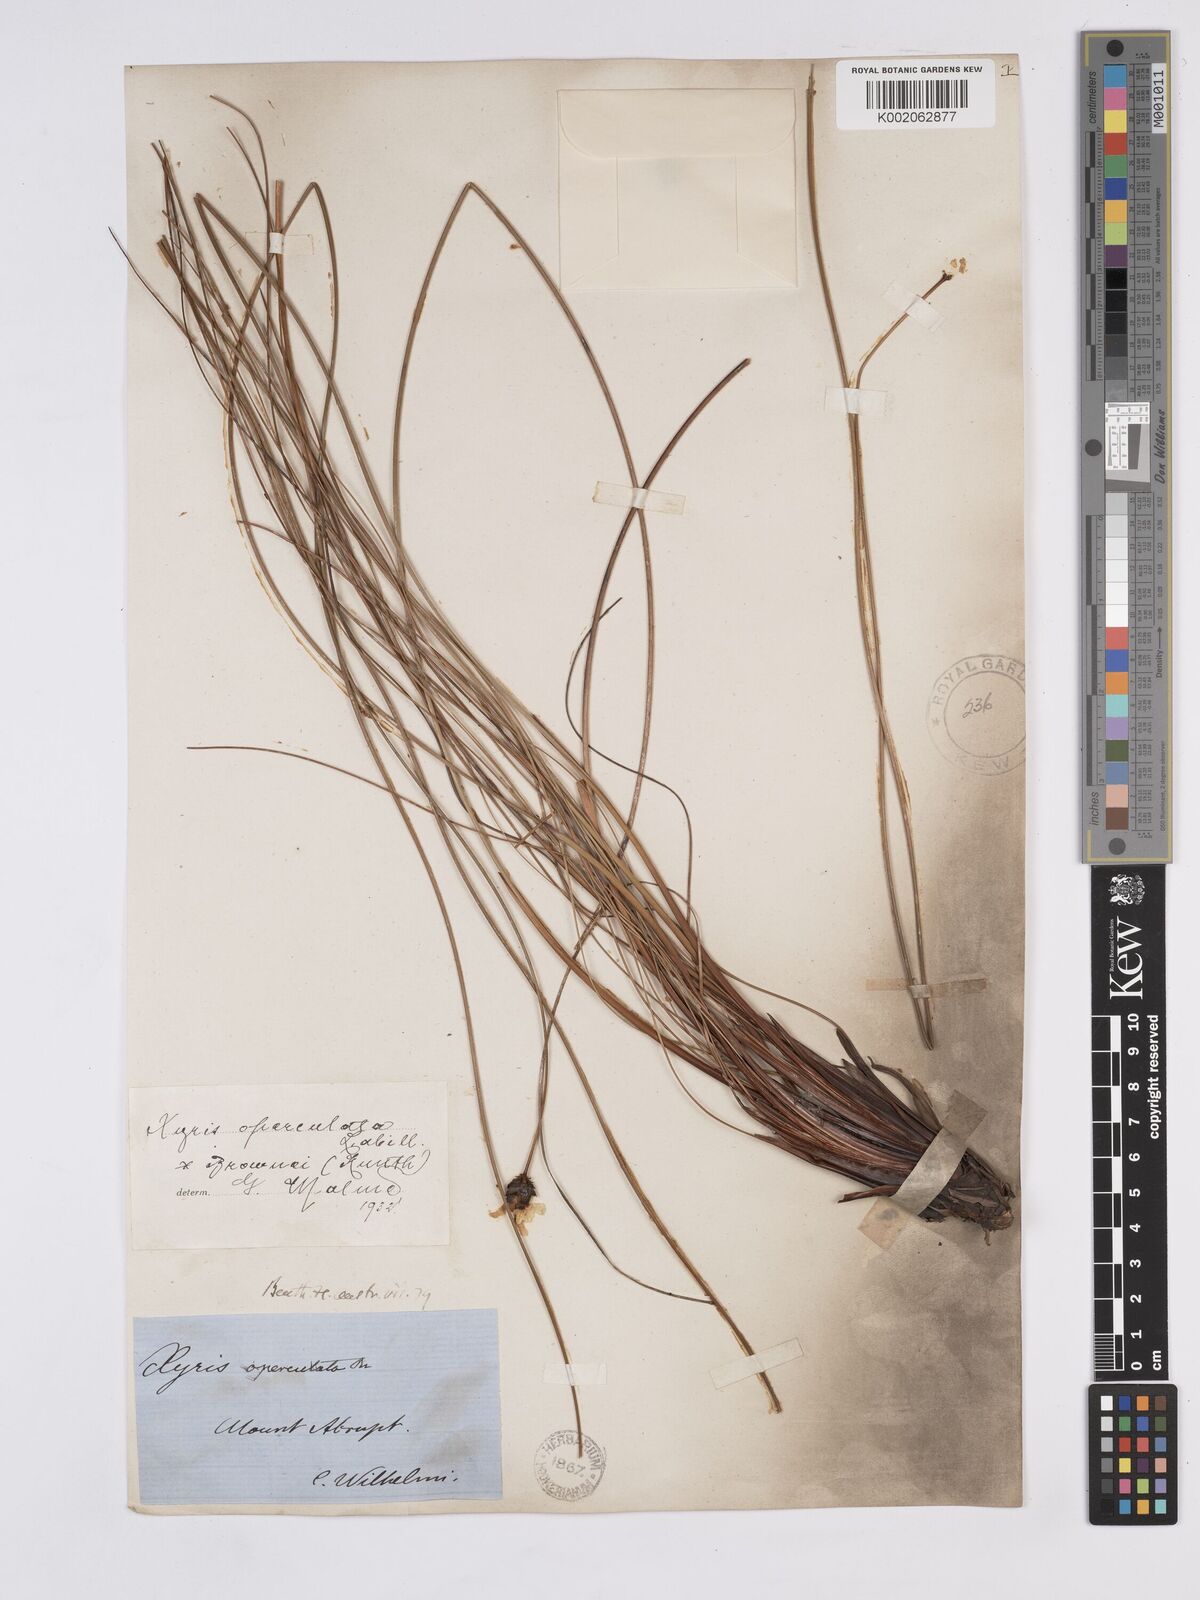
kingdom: Plantae
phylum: Tracheophyta
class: Liliopsida
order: Poales
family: Xyridaceae
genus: Xyris
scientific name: Xyris operculata
